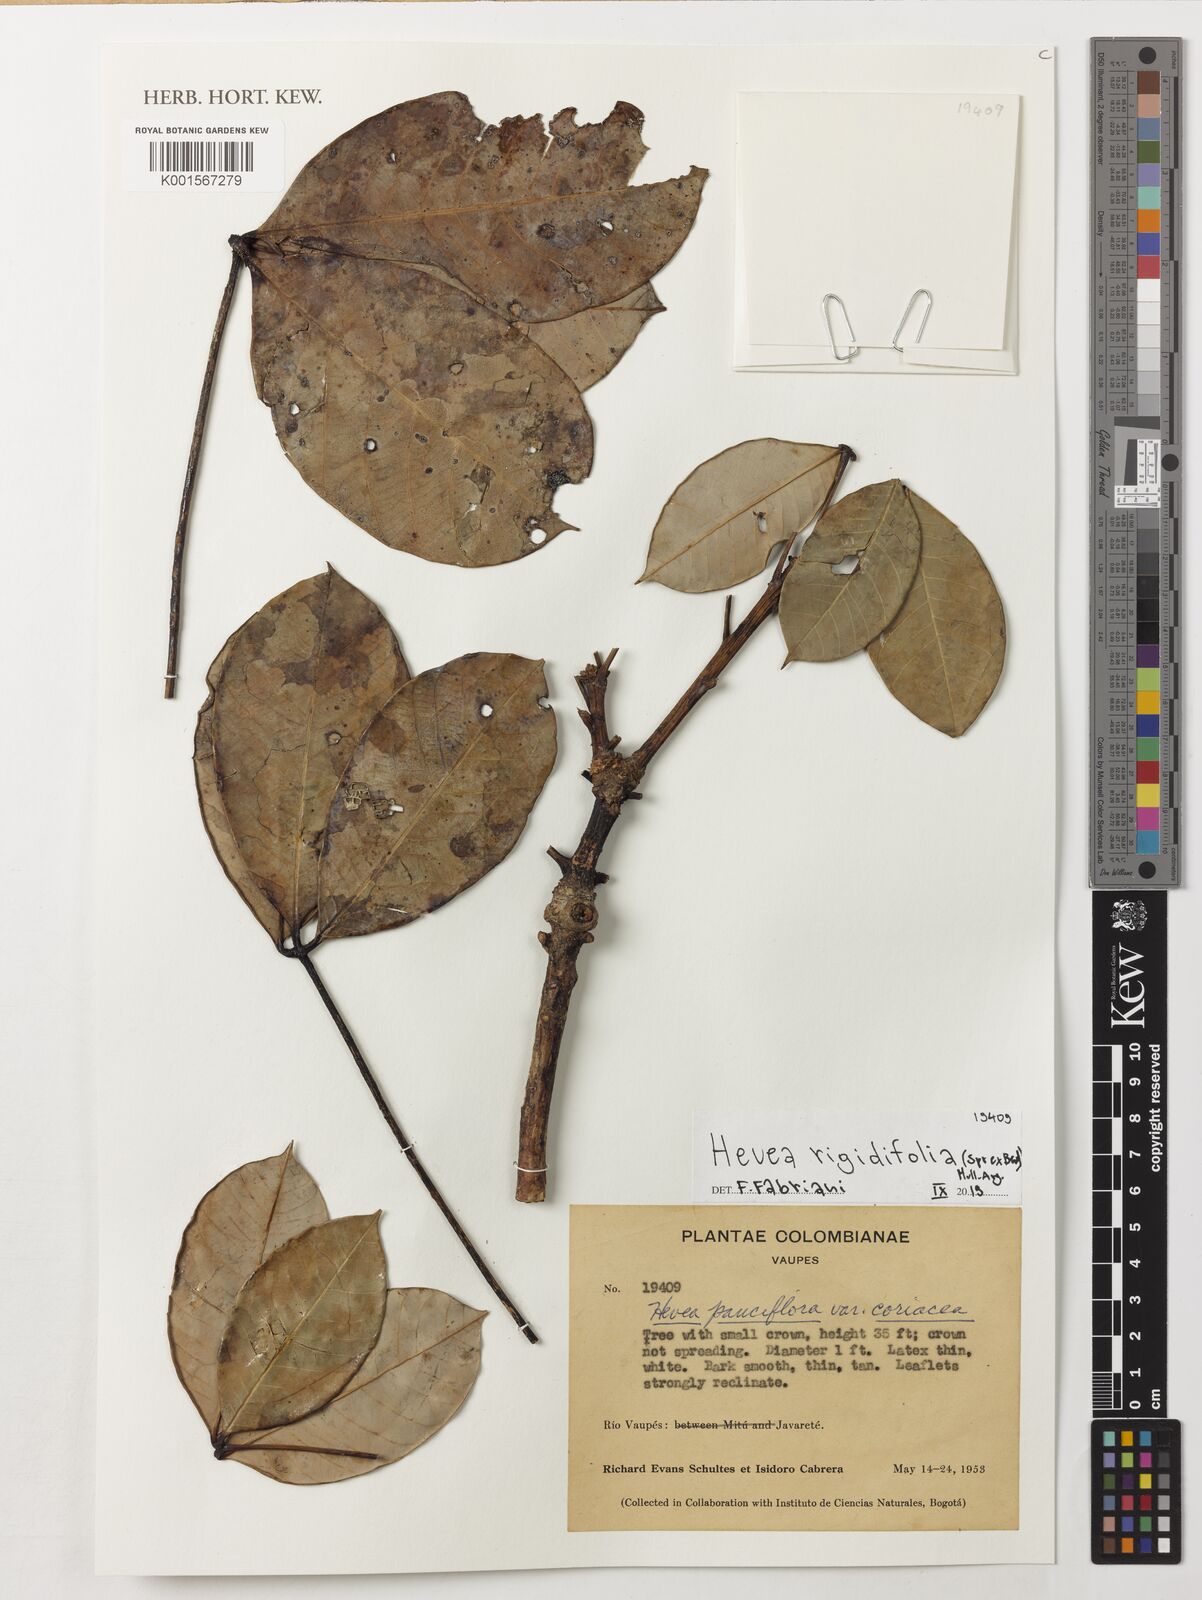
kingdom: Plantae
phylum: Tracheophyta
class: Magnoliopsida
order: Malpighiales
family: Euphorbiaceae
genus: Hevea
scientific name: Hevea pauciflora
